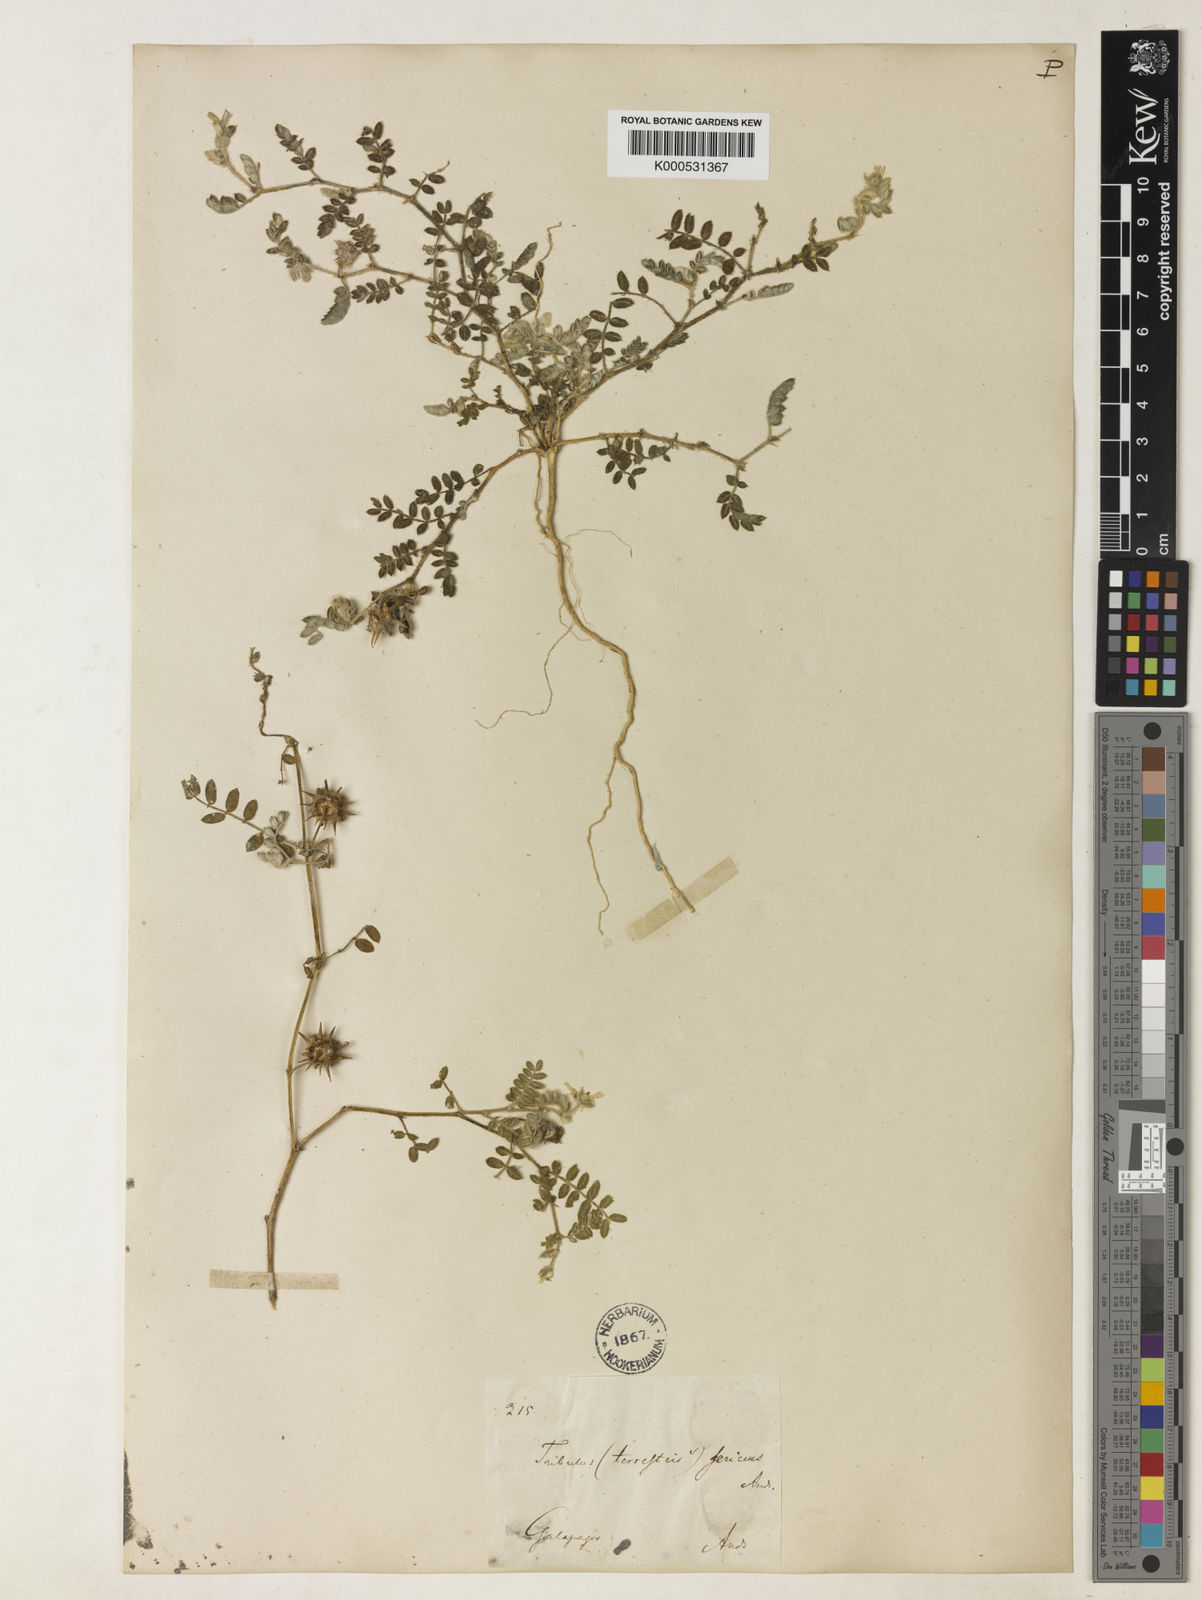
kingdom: Plantae
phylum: Tracheophyta
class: Magnoliopsida
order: Zygophyllales
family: Zygophyllaceae
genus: Tribulus
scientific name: Tribulus cistoides
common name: Jamaican feverplant
